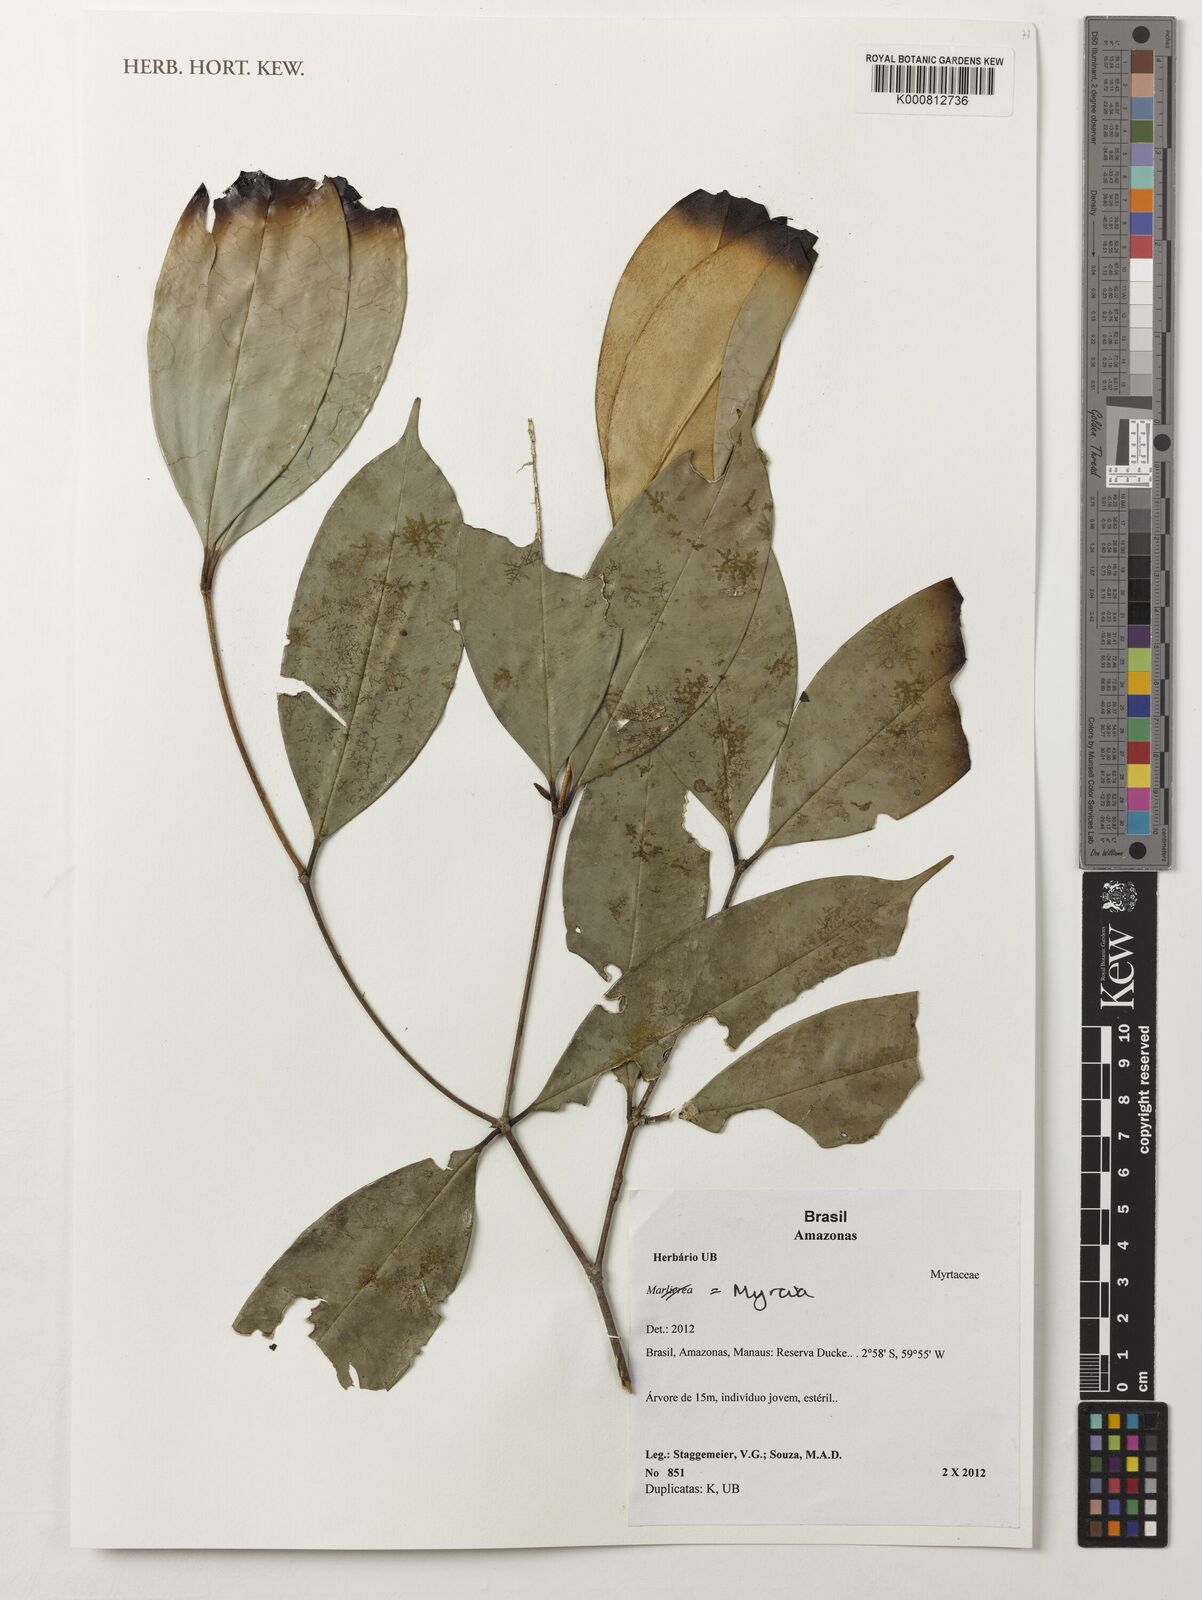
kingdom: Plantae
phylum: Tracheophyta
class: Magnoliopsida
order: Myrtales
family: Myrtaceae
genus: Myrcia
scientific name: Myrcia
